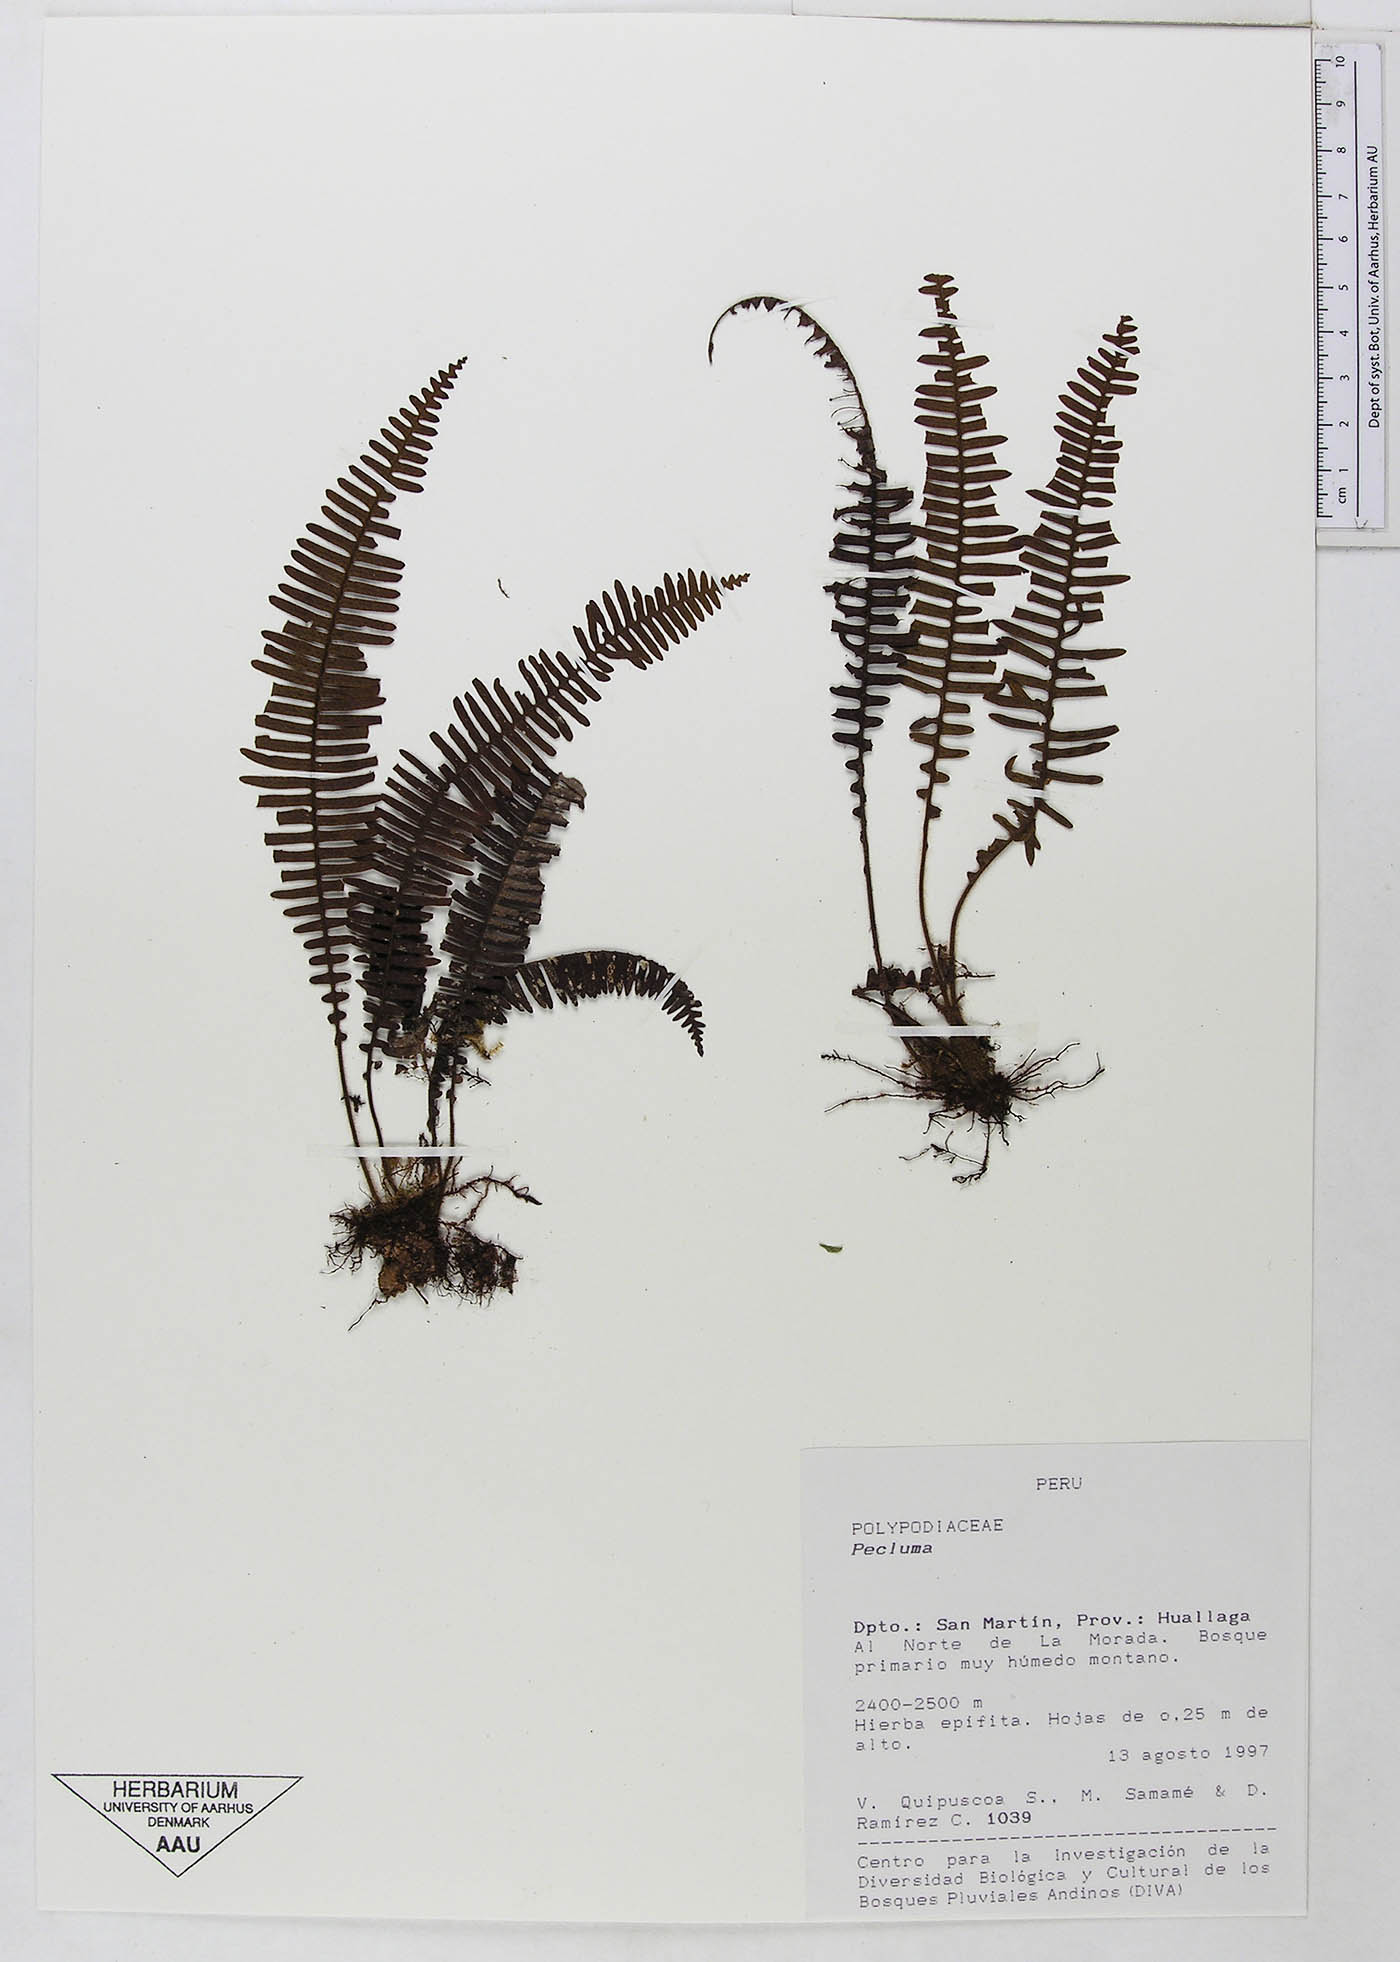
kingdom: Plantae
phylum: Tracheophyta
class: Polypodiopsida
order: Polypodiales
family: Polypodiaceae
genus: Pecluma
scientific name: Pecluma
